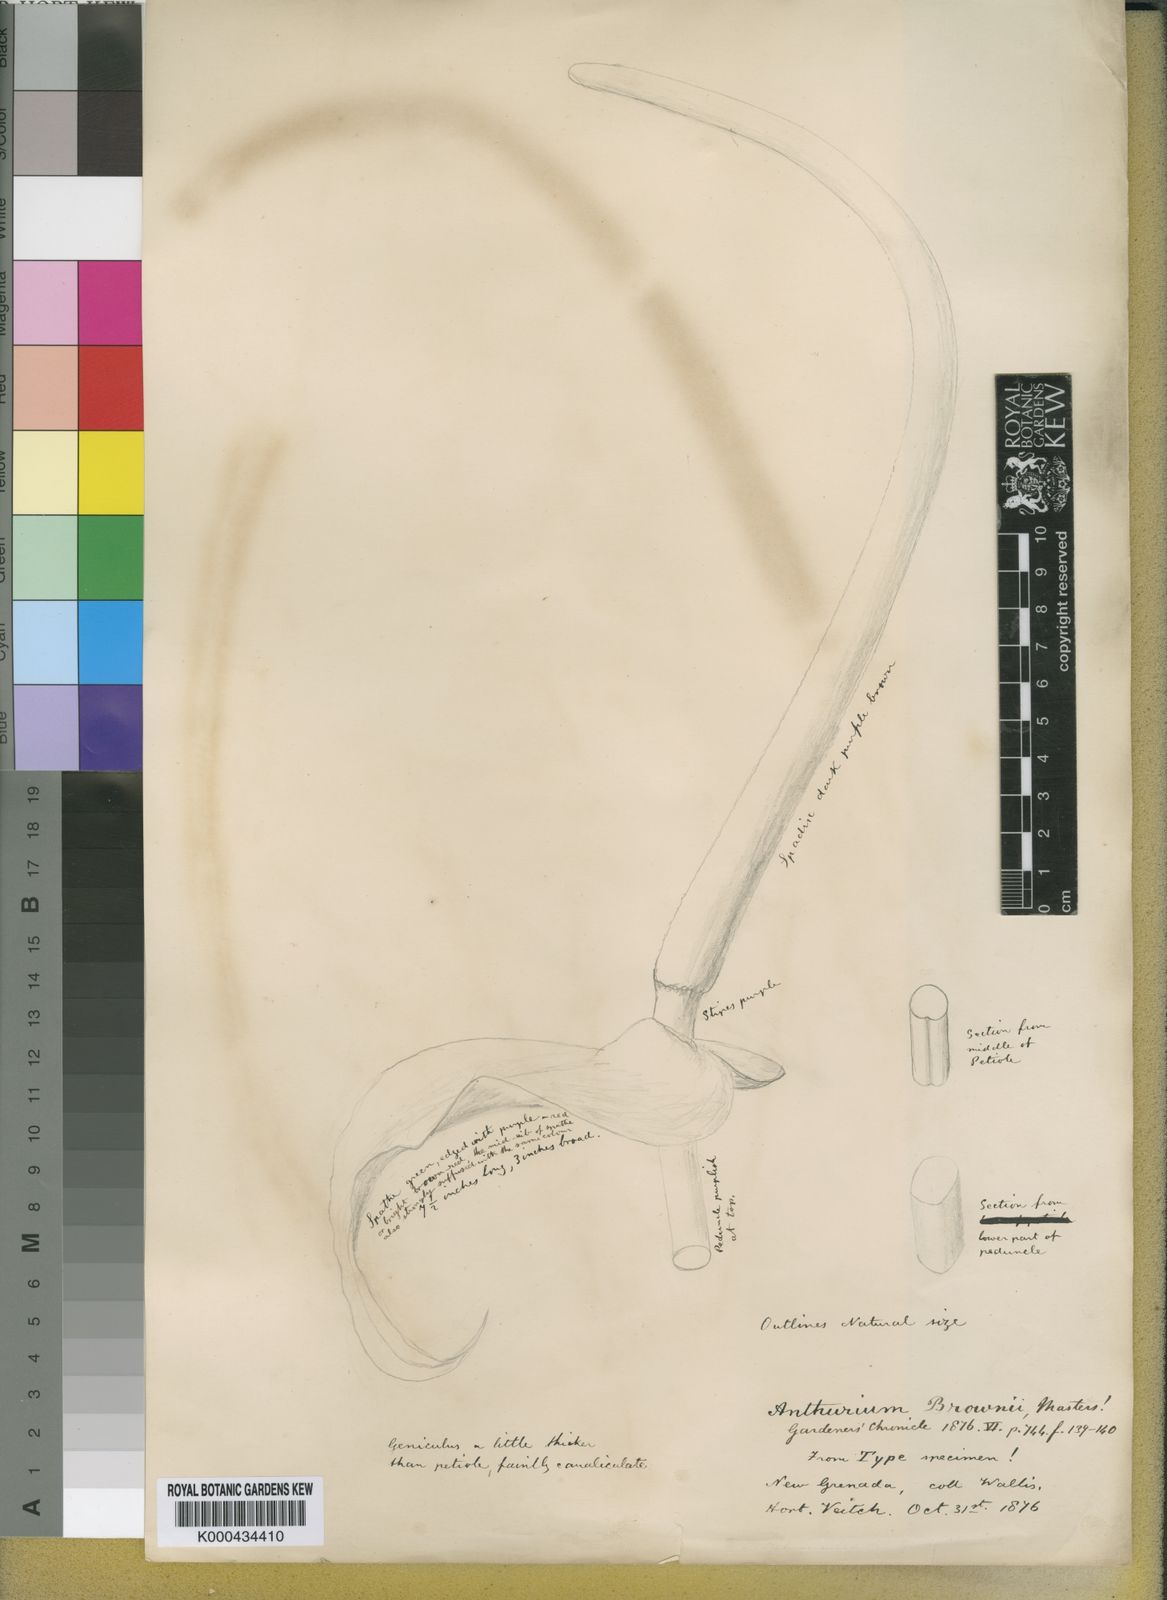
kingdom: Plantae
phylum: Tracheophyta
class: Liliopsida
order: Alismatales
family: Araceae
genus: Anthurium
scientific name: Anthurium brownii
